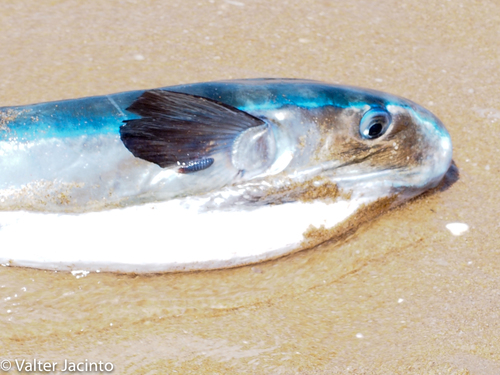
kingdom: Animalia
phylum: Chordata
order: Tetraodontiformes
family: Tetraodontidae
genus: Lagocephalus
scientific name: Lagocephalus lagocephalus
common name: Oceanic puffer
